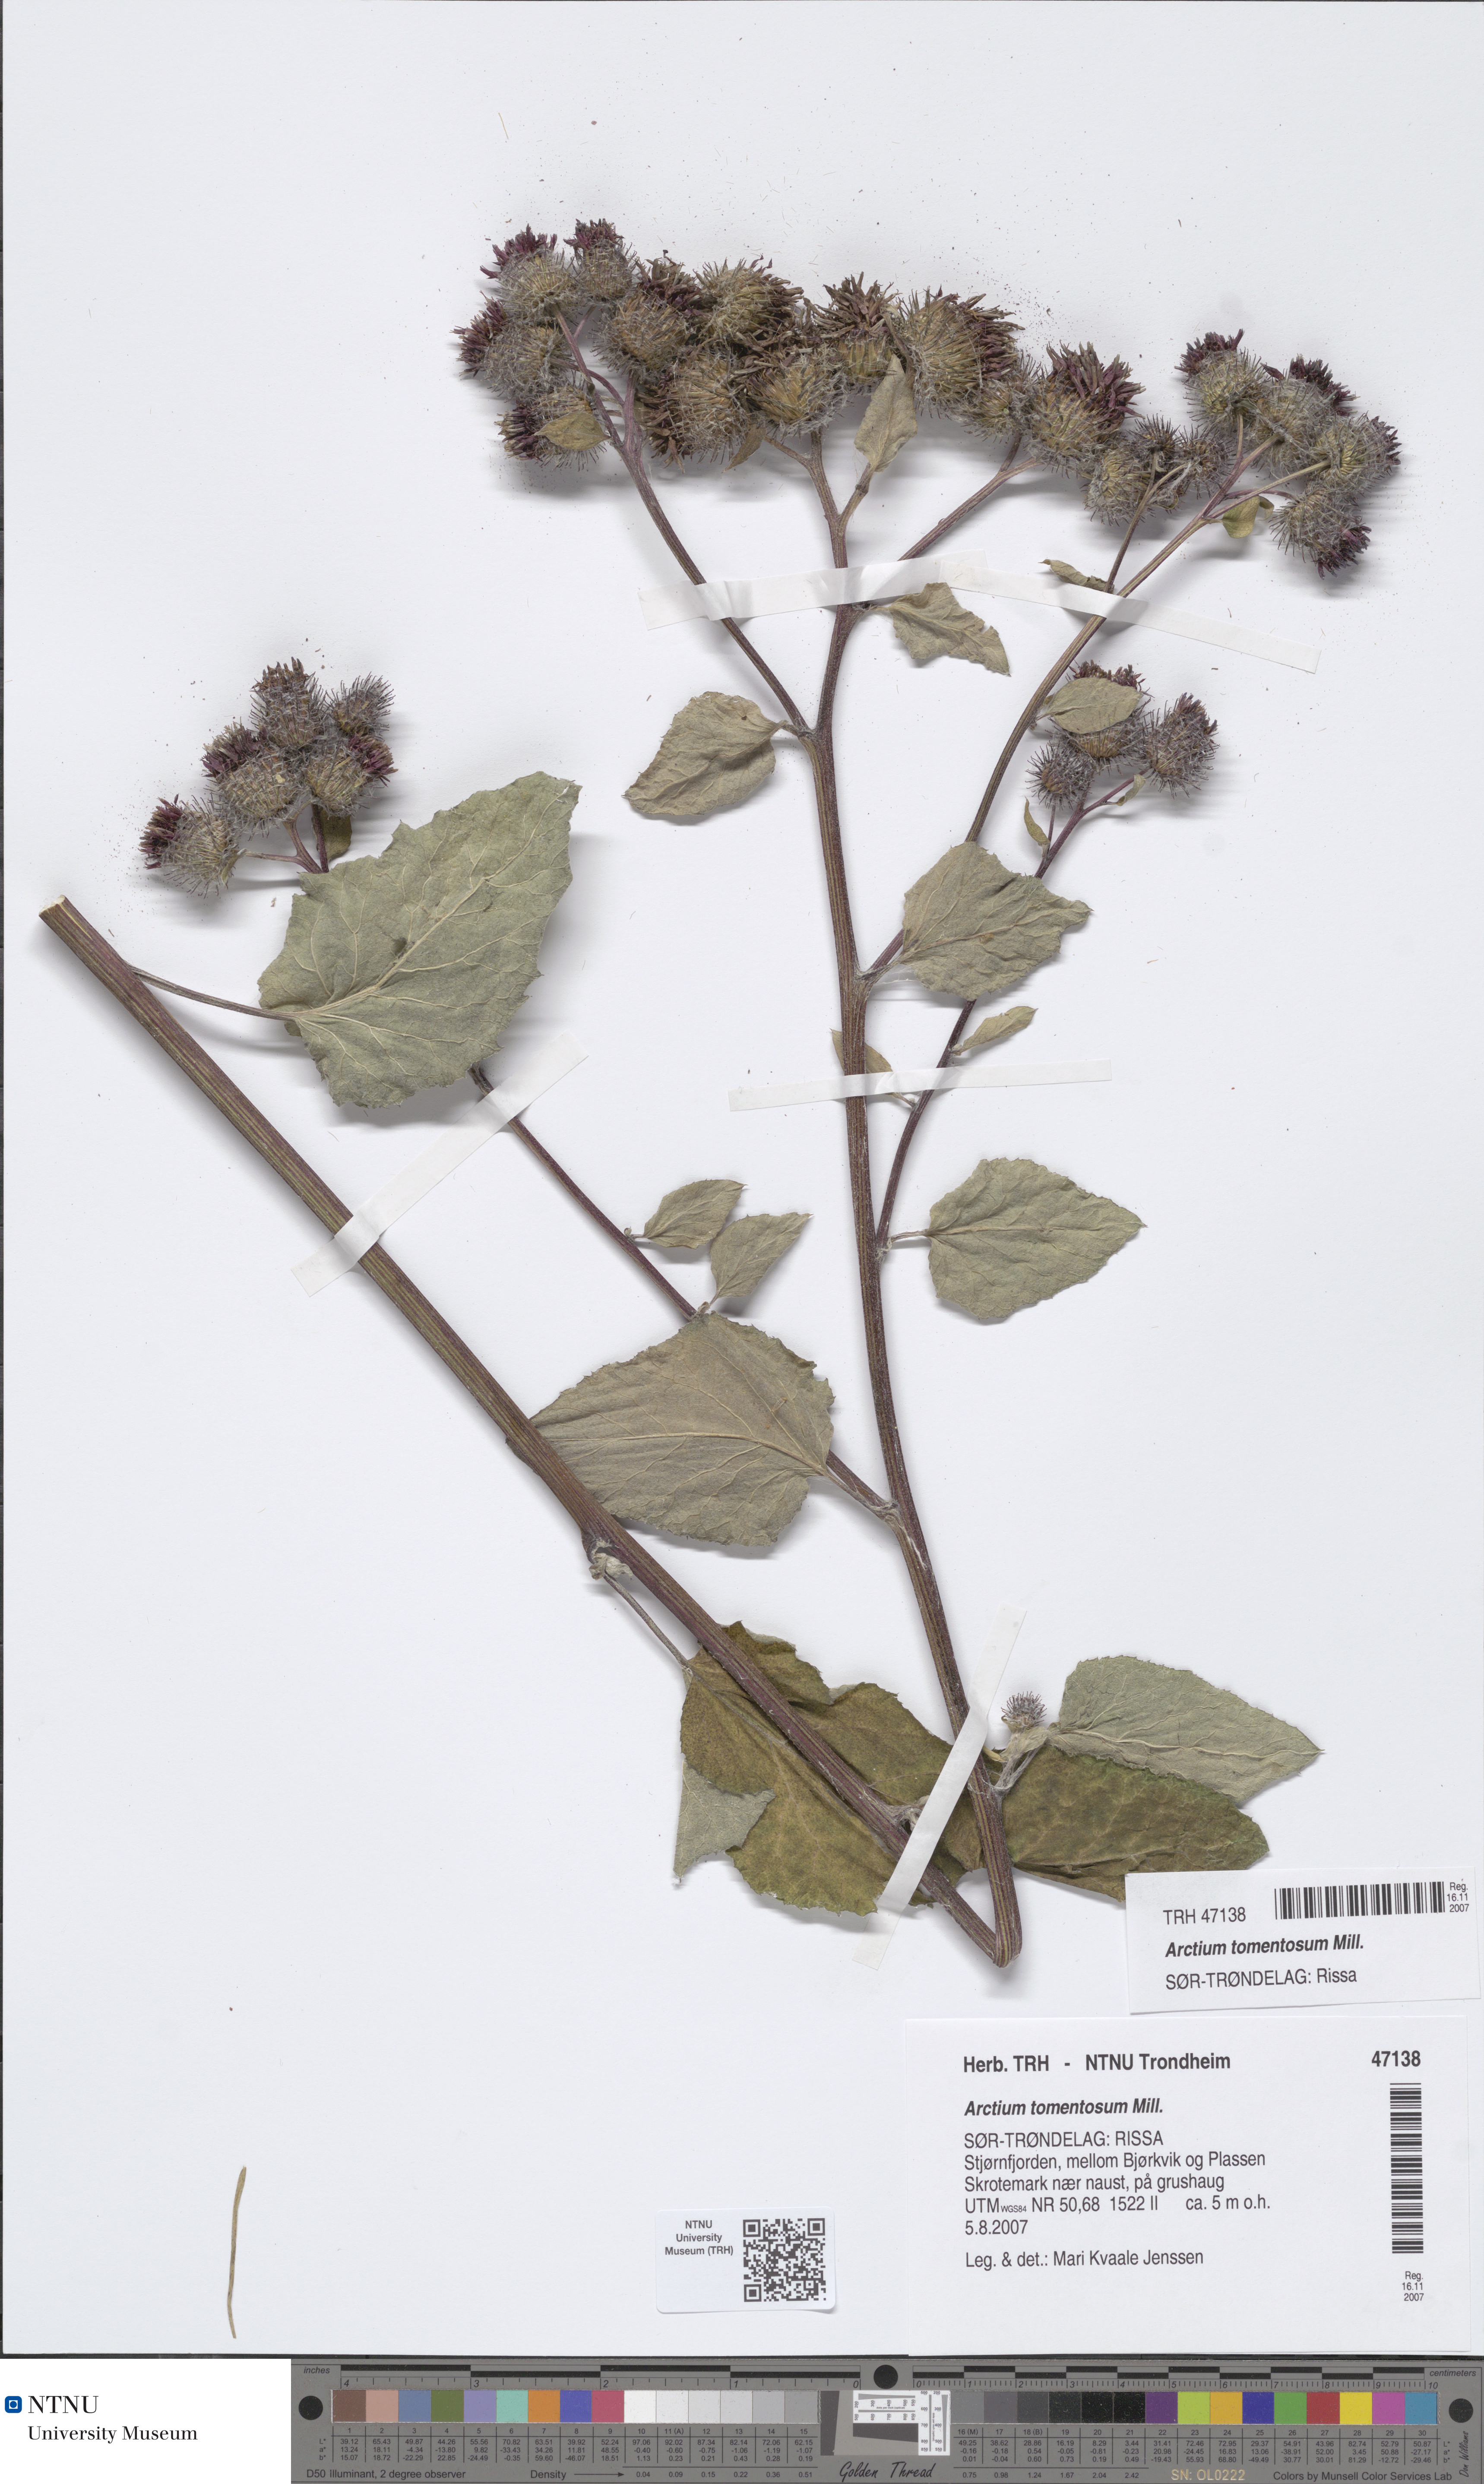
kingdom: Plantae
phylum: Tracheophyta
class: Magnoliopsida
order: Asterales
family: Asteraceae
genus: Arctium
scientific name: Arctium tomentosum
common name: Woolly burdock
